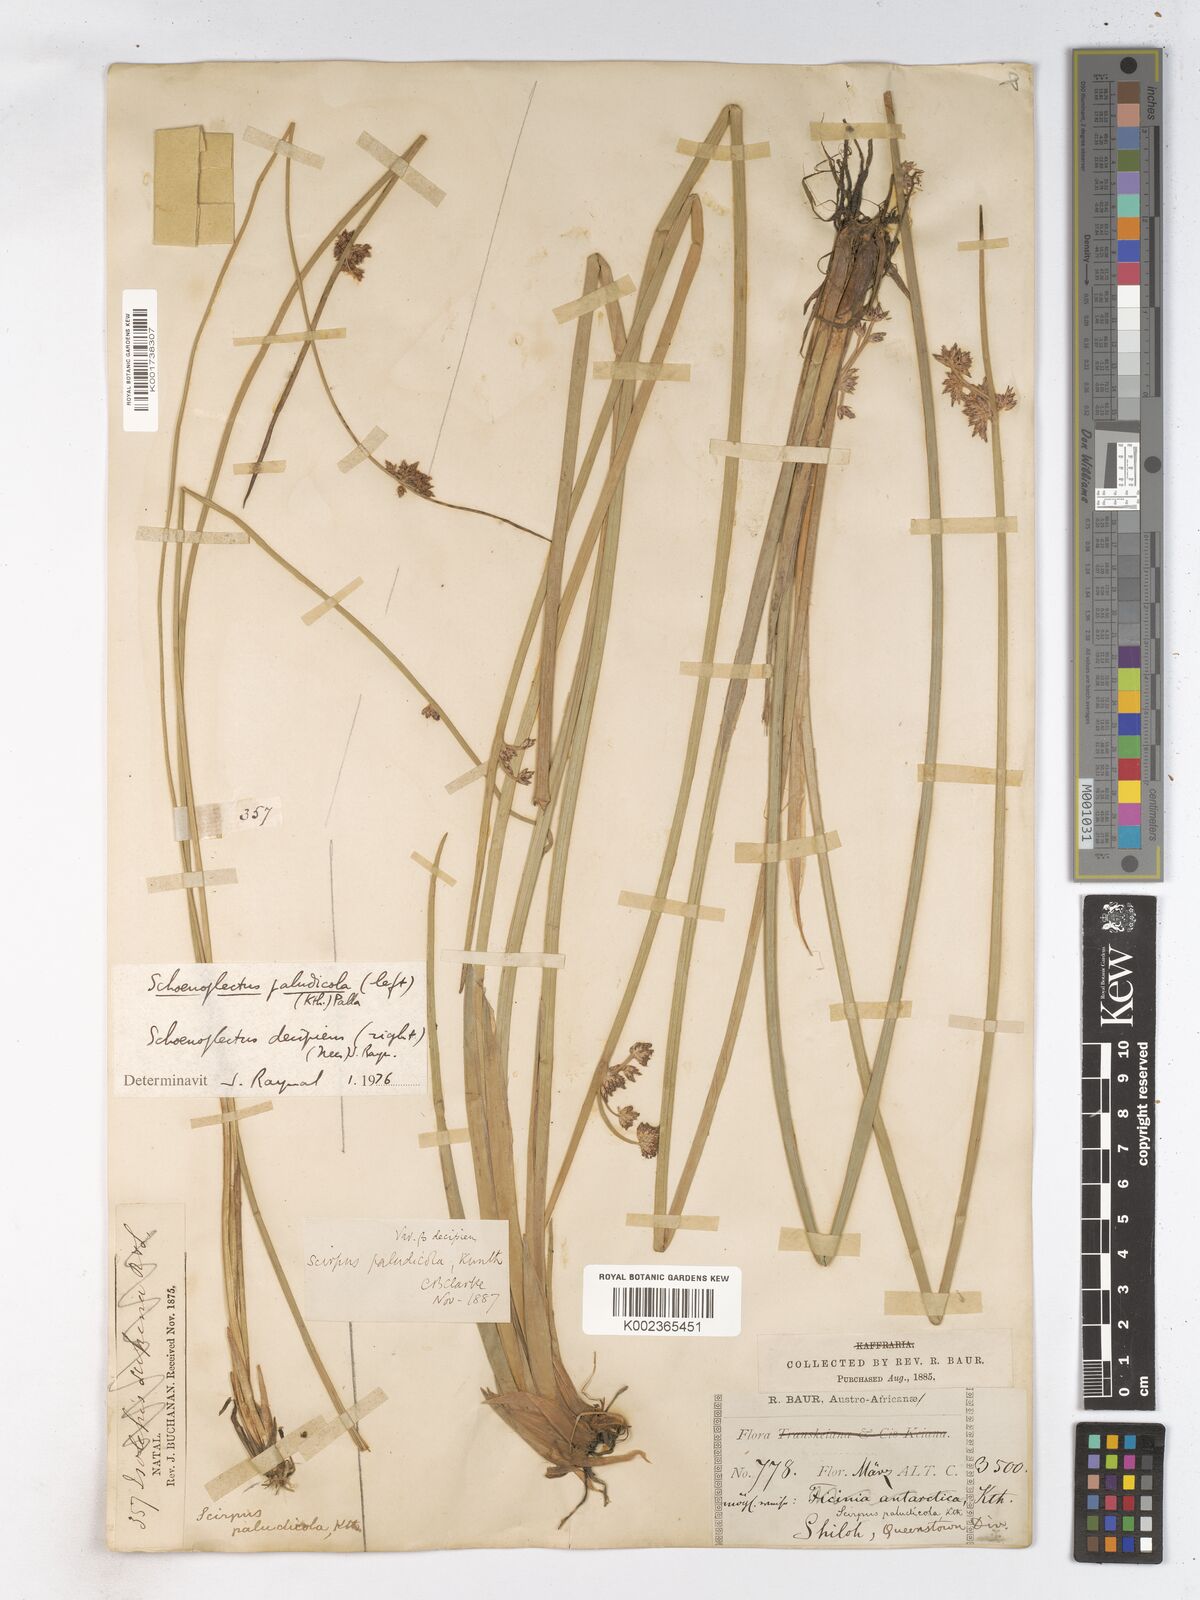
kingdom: Plantae
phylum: Tracheophyta
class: Liliopsida
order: Poales
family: Cyperaceae
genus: Schoenoplectiella
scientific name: Schoenoplectiella paludicola
